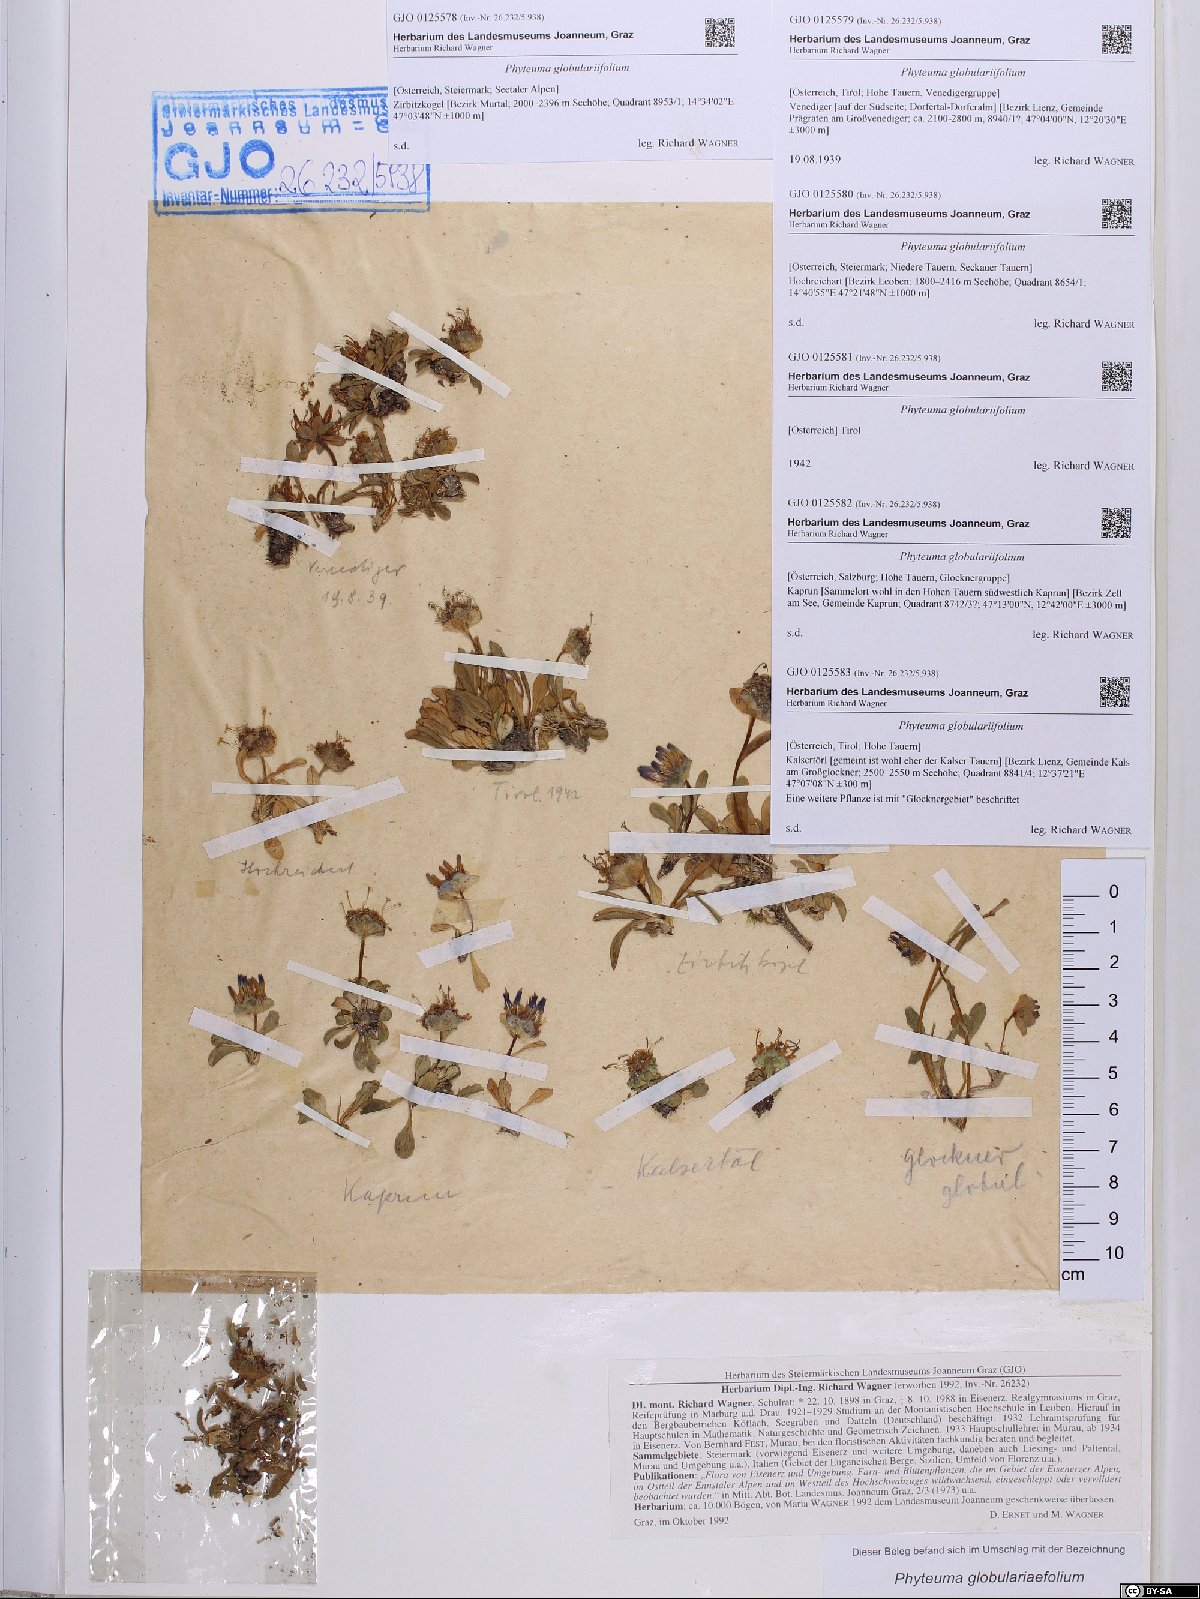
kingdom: Plantae
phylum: Tracheophyta
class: Magnoliopsida
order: Asterales
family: Campanulaceae
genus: Phyteuma
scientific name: Phyteuma globulariifolium
